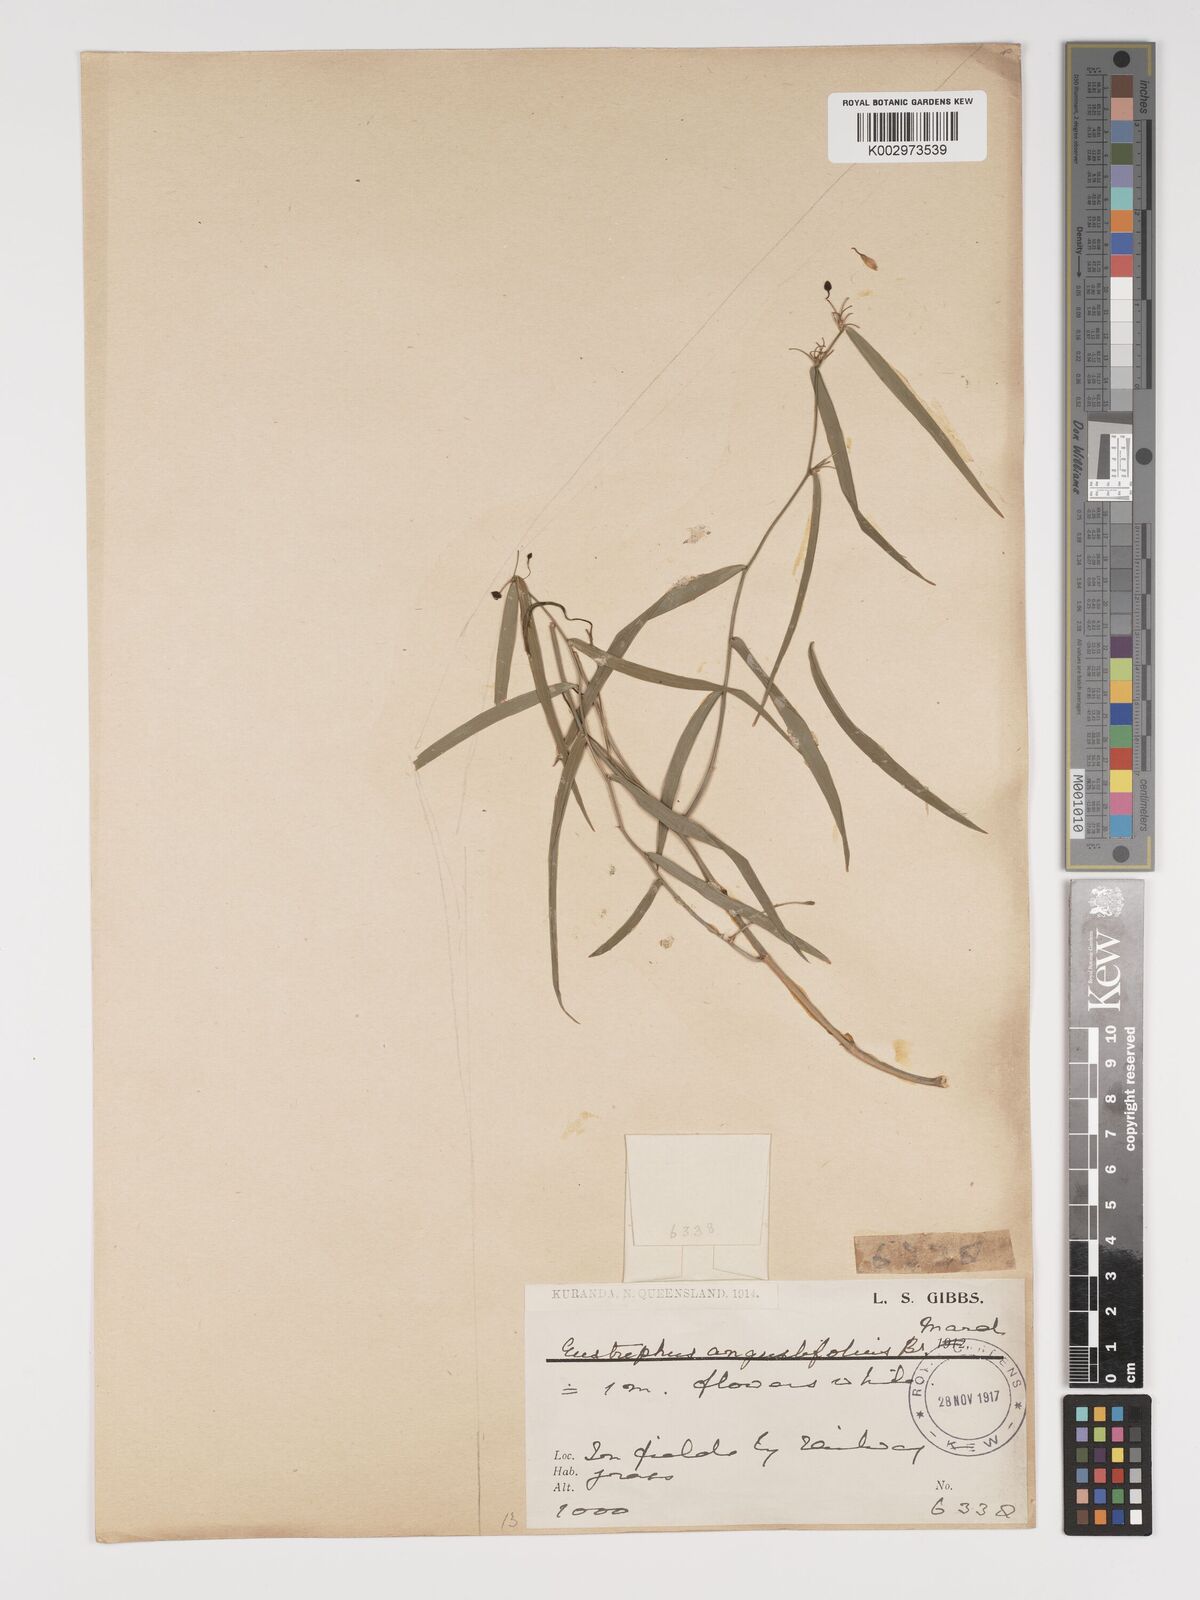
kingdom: Plantae
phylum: Tracheophyta
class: Liliopsida
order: Asparagales
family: Asparagaceae
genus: Eustrephus
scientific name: Eustrephus latifolius
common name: Orangevine
